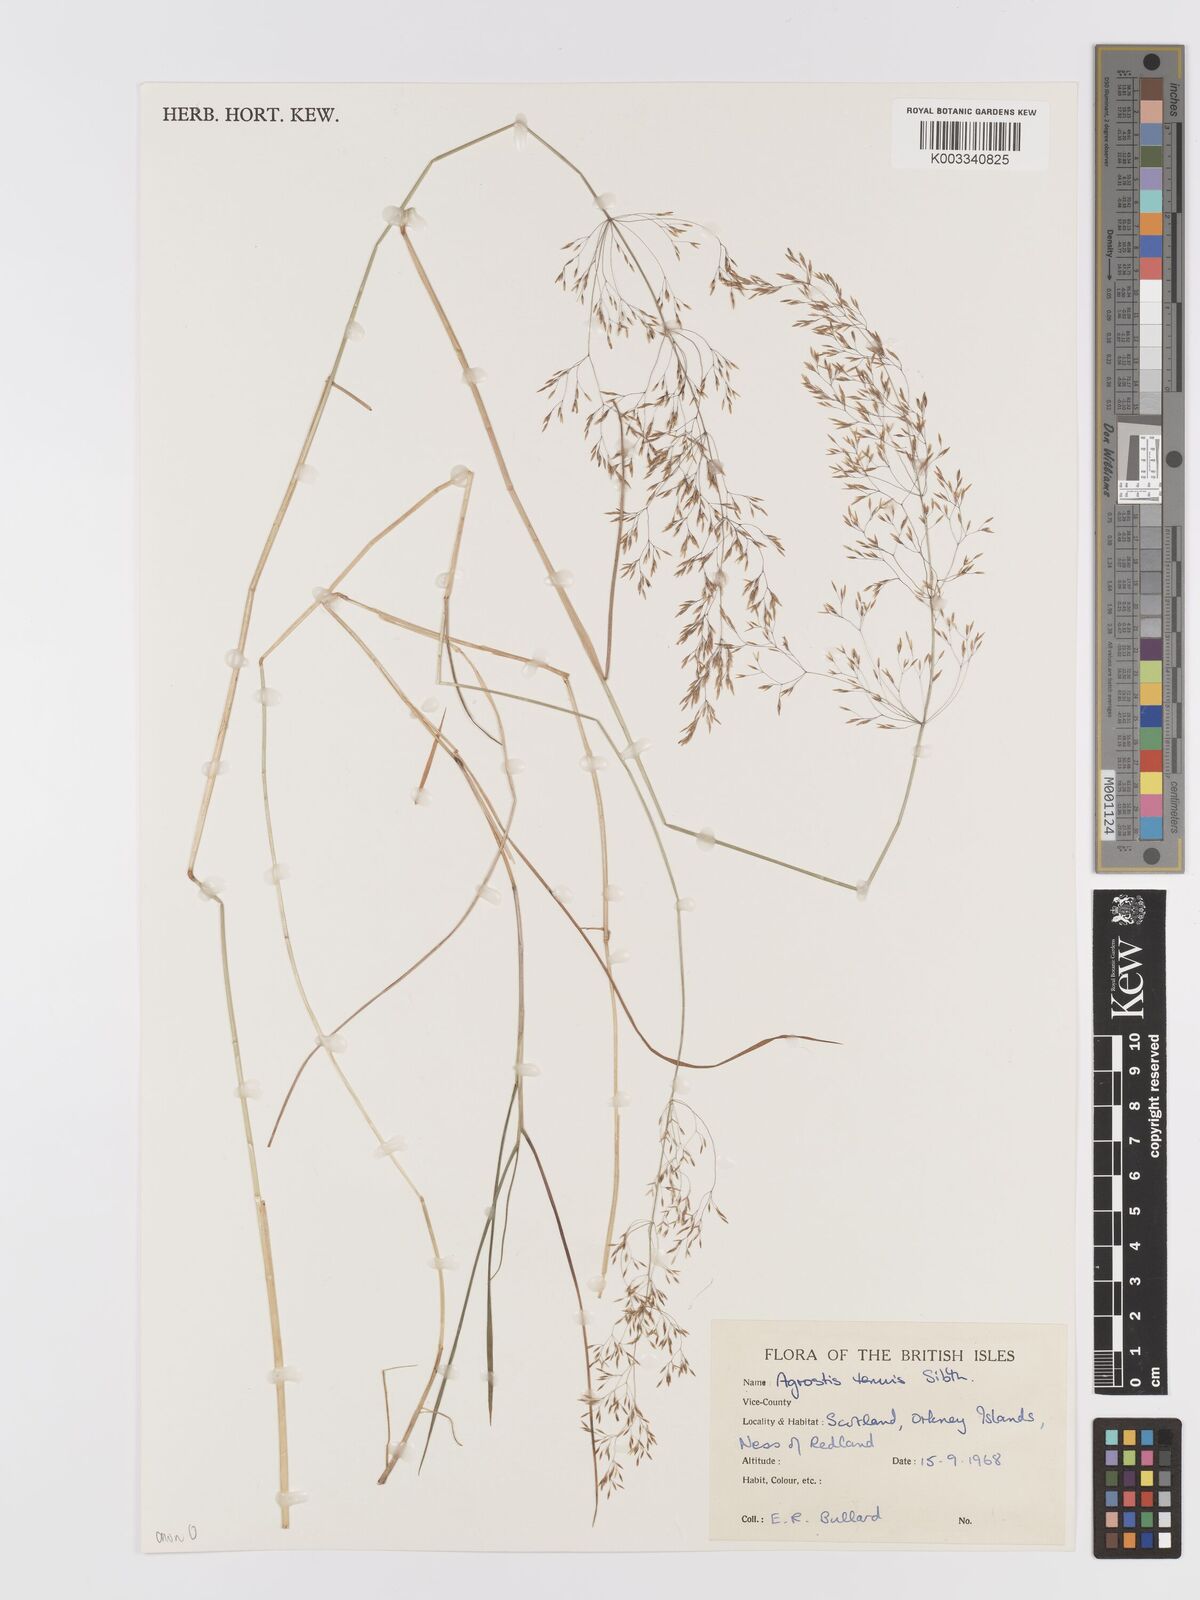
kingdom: Plantae
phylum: Tracheophyta
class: Liliopsida
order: Poales
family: Poaceae
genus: Agrostis
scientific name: Agrostis capillaris
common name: Colonial bentgrass
